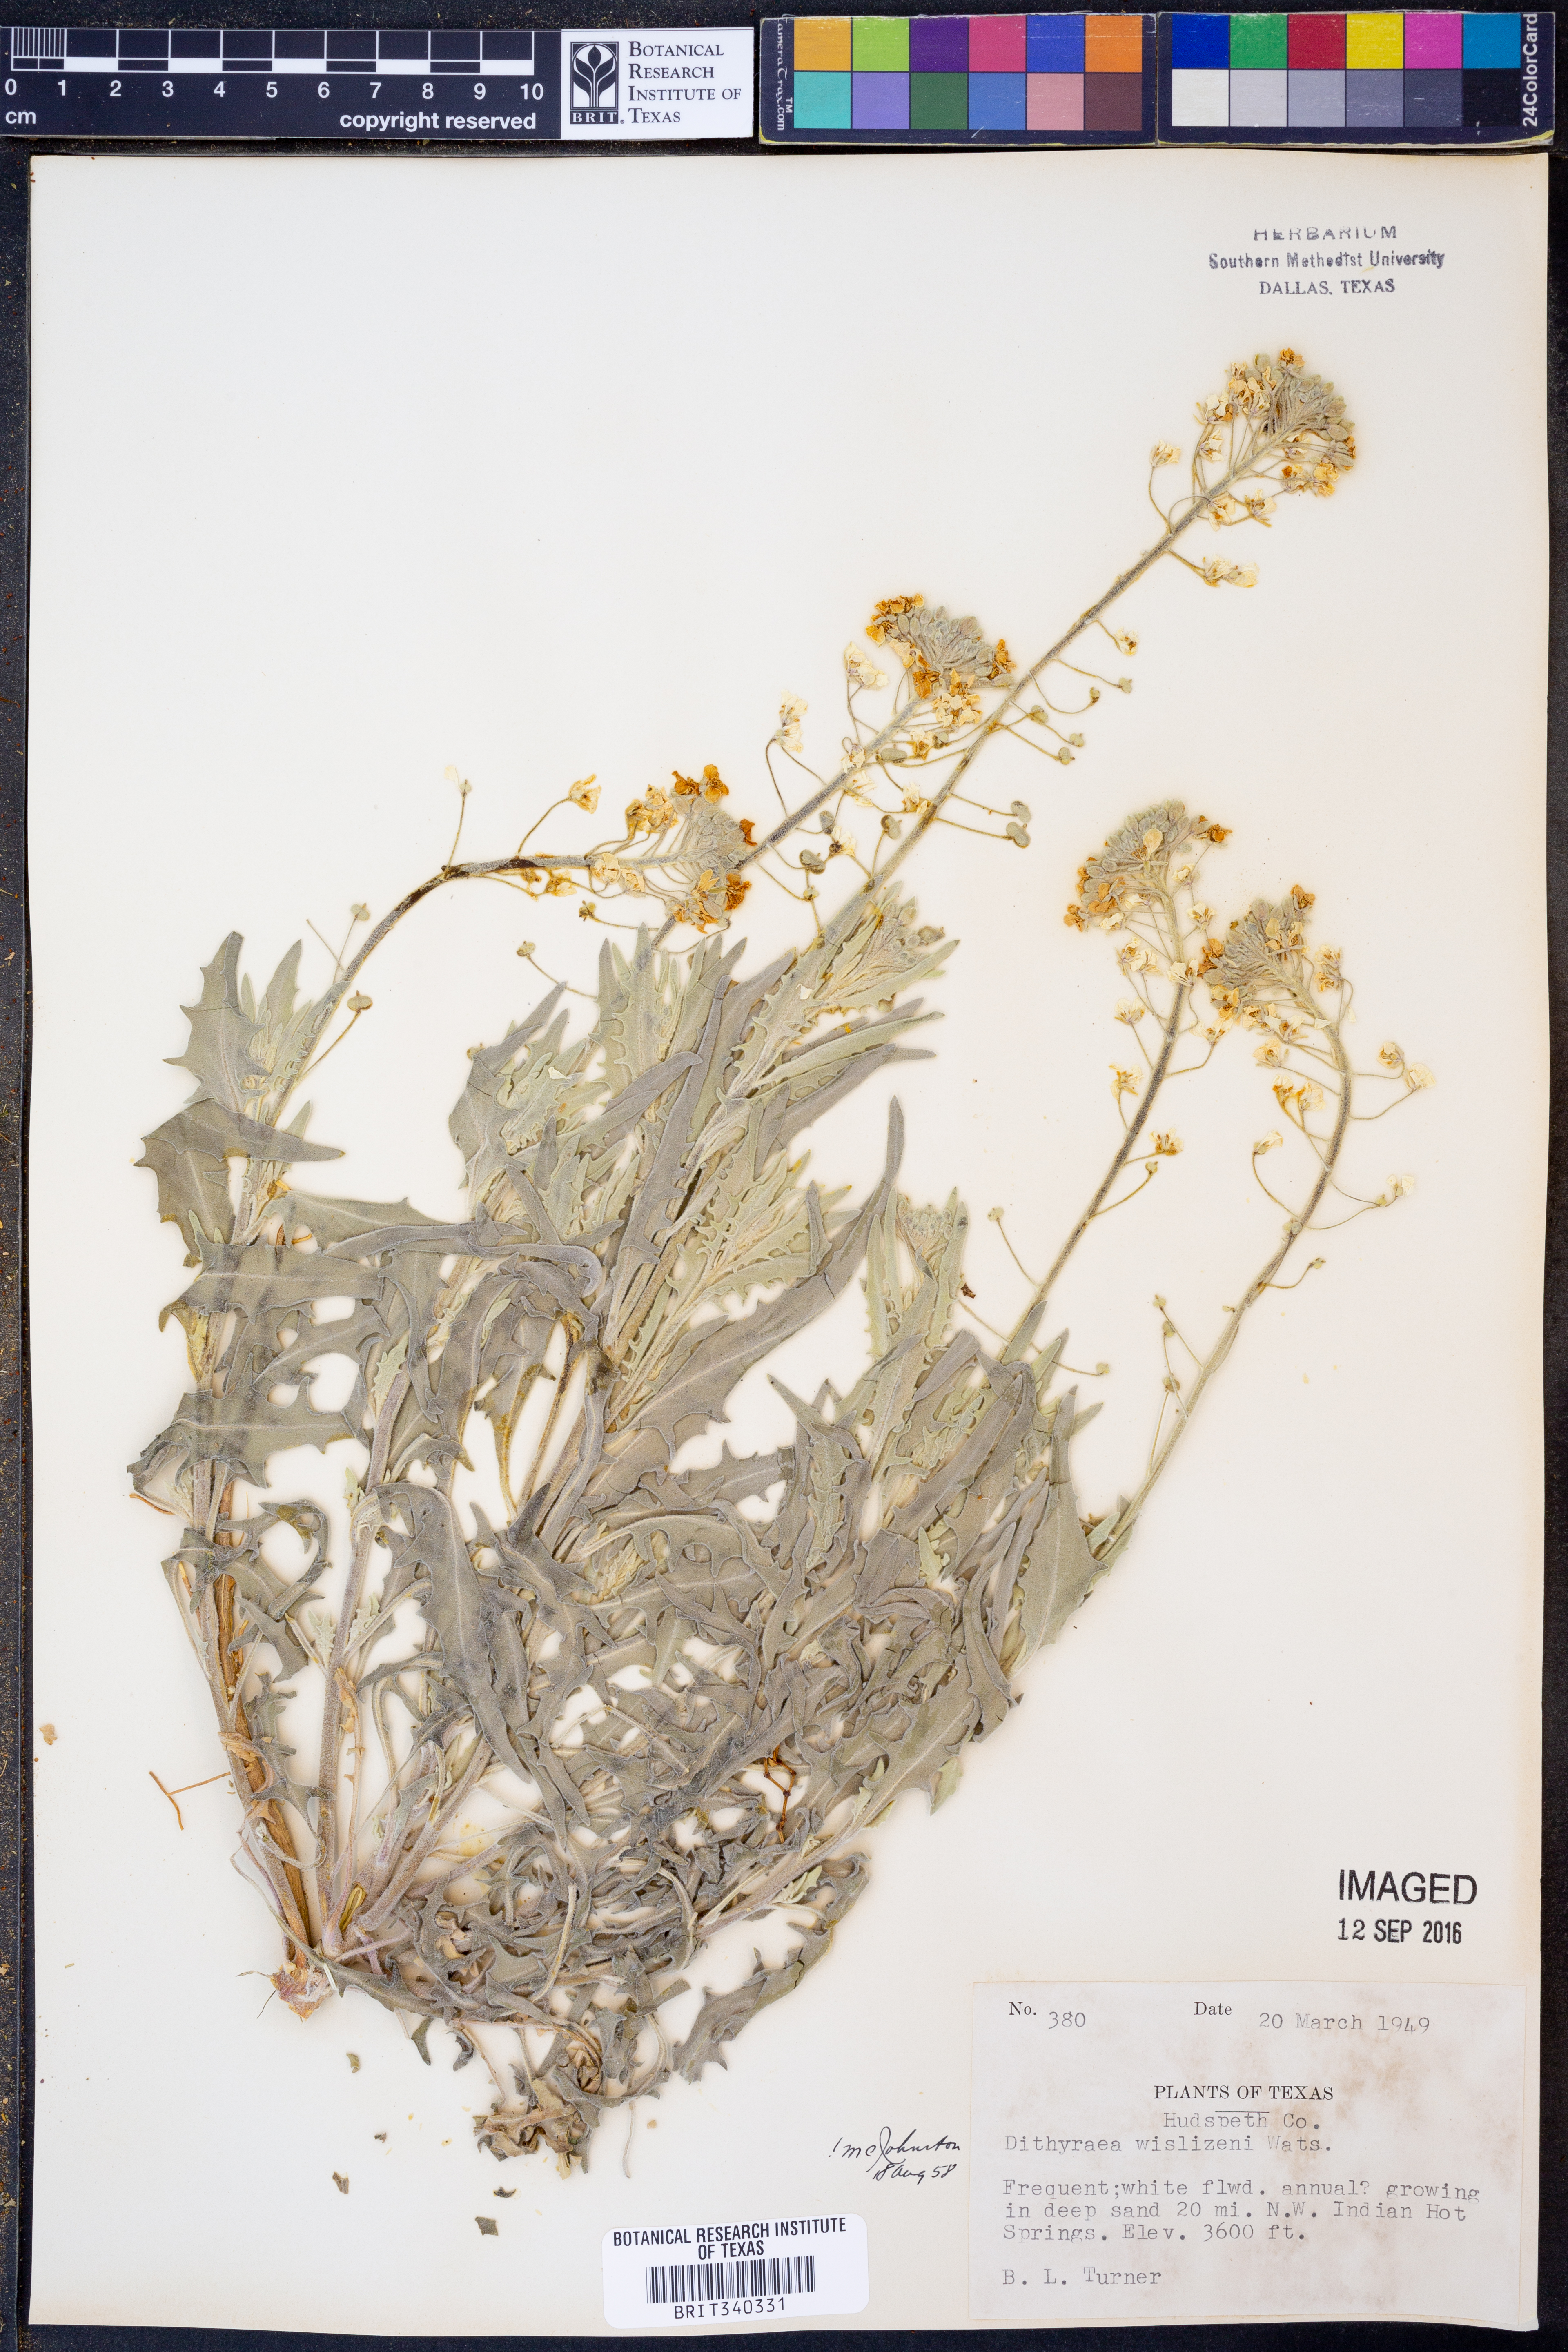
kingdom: Plantae
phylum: Tracheophyta
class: Magnoliopsida
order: Brassicales
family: Brassicaceae
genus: Dimorphocarpa
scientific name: Dimorphocarpa wislizenii
